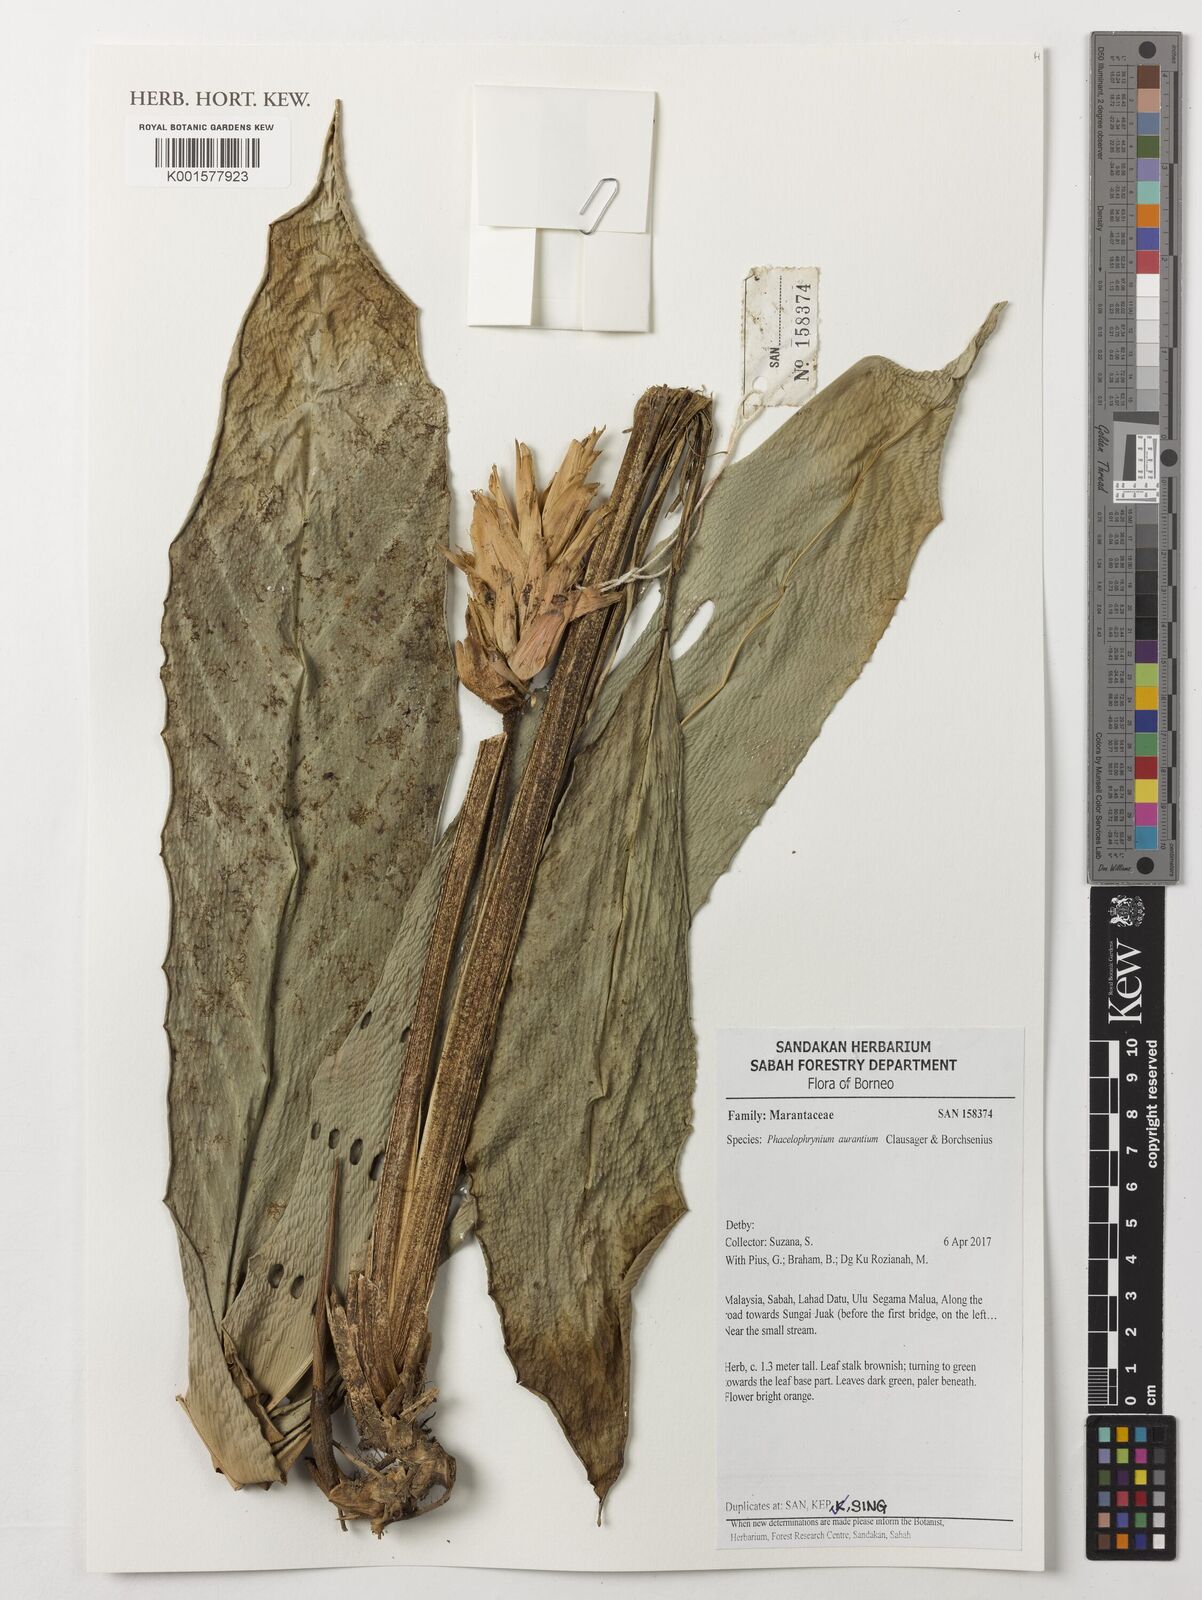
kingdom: Plantae
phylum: Tracheophyta
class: Liliopsida
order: Zingiberales
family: Marantaceae
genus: Phrynium
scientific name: Phrynium aurantium
